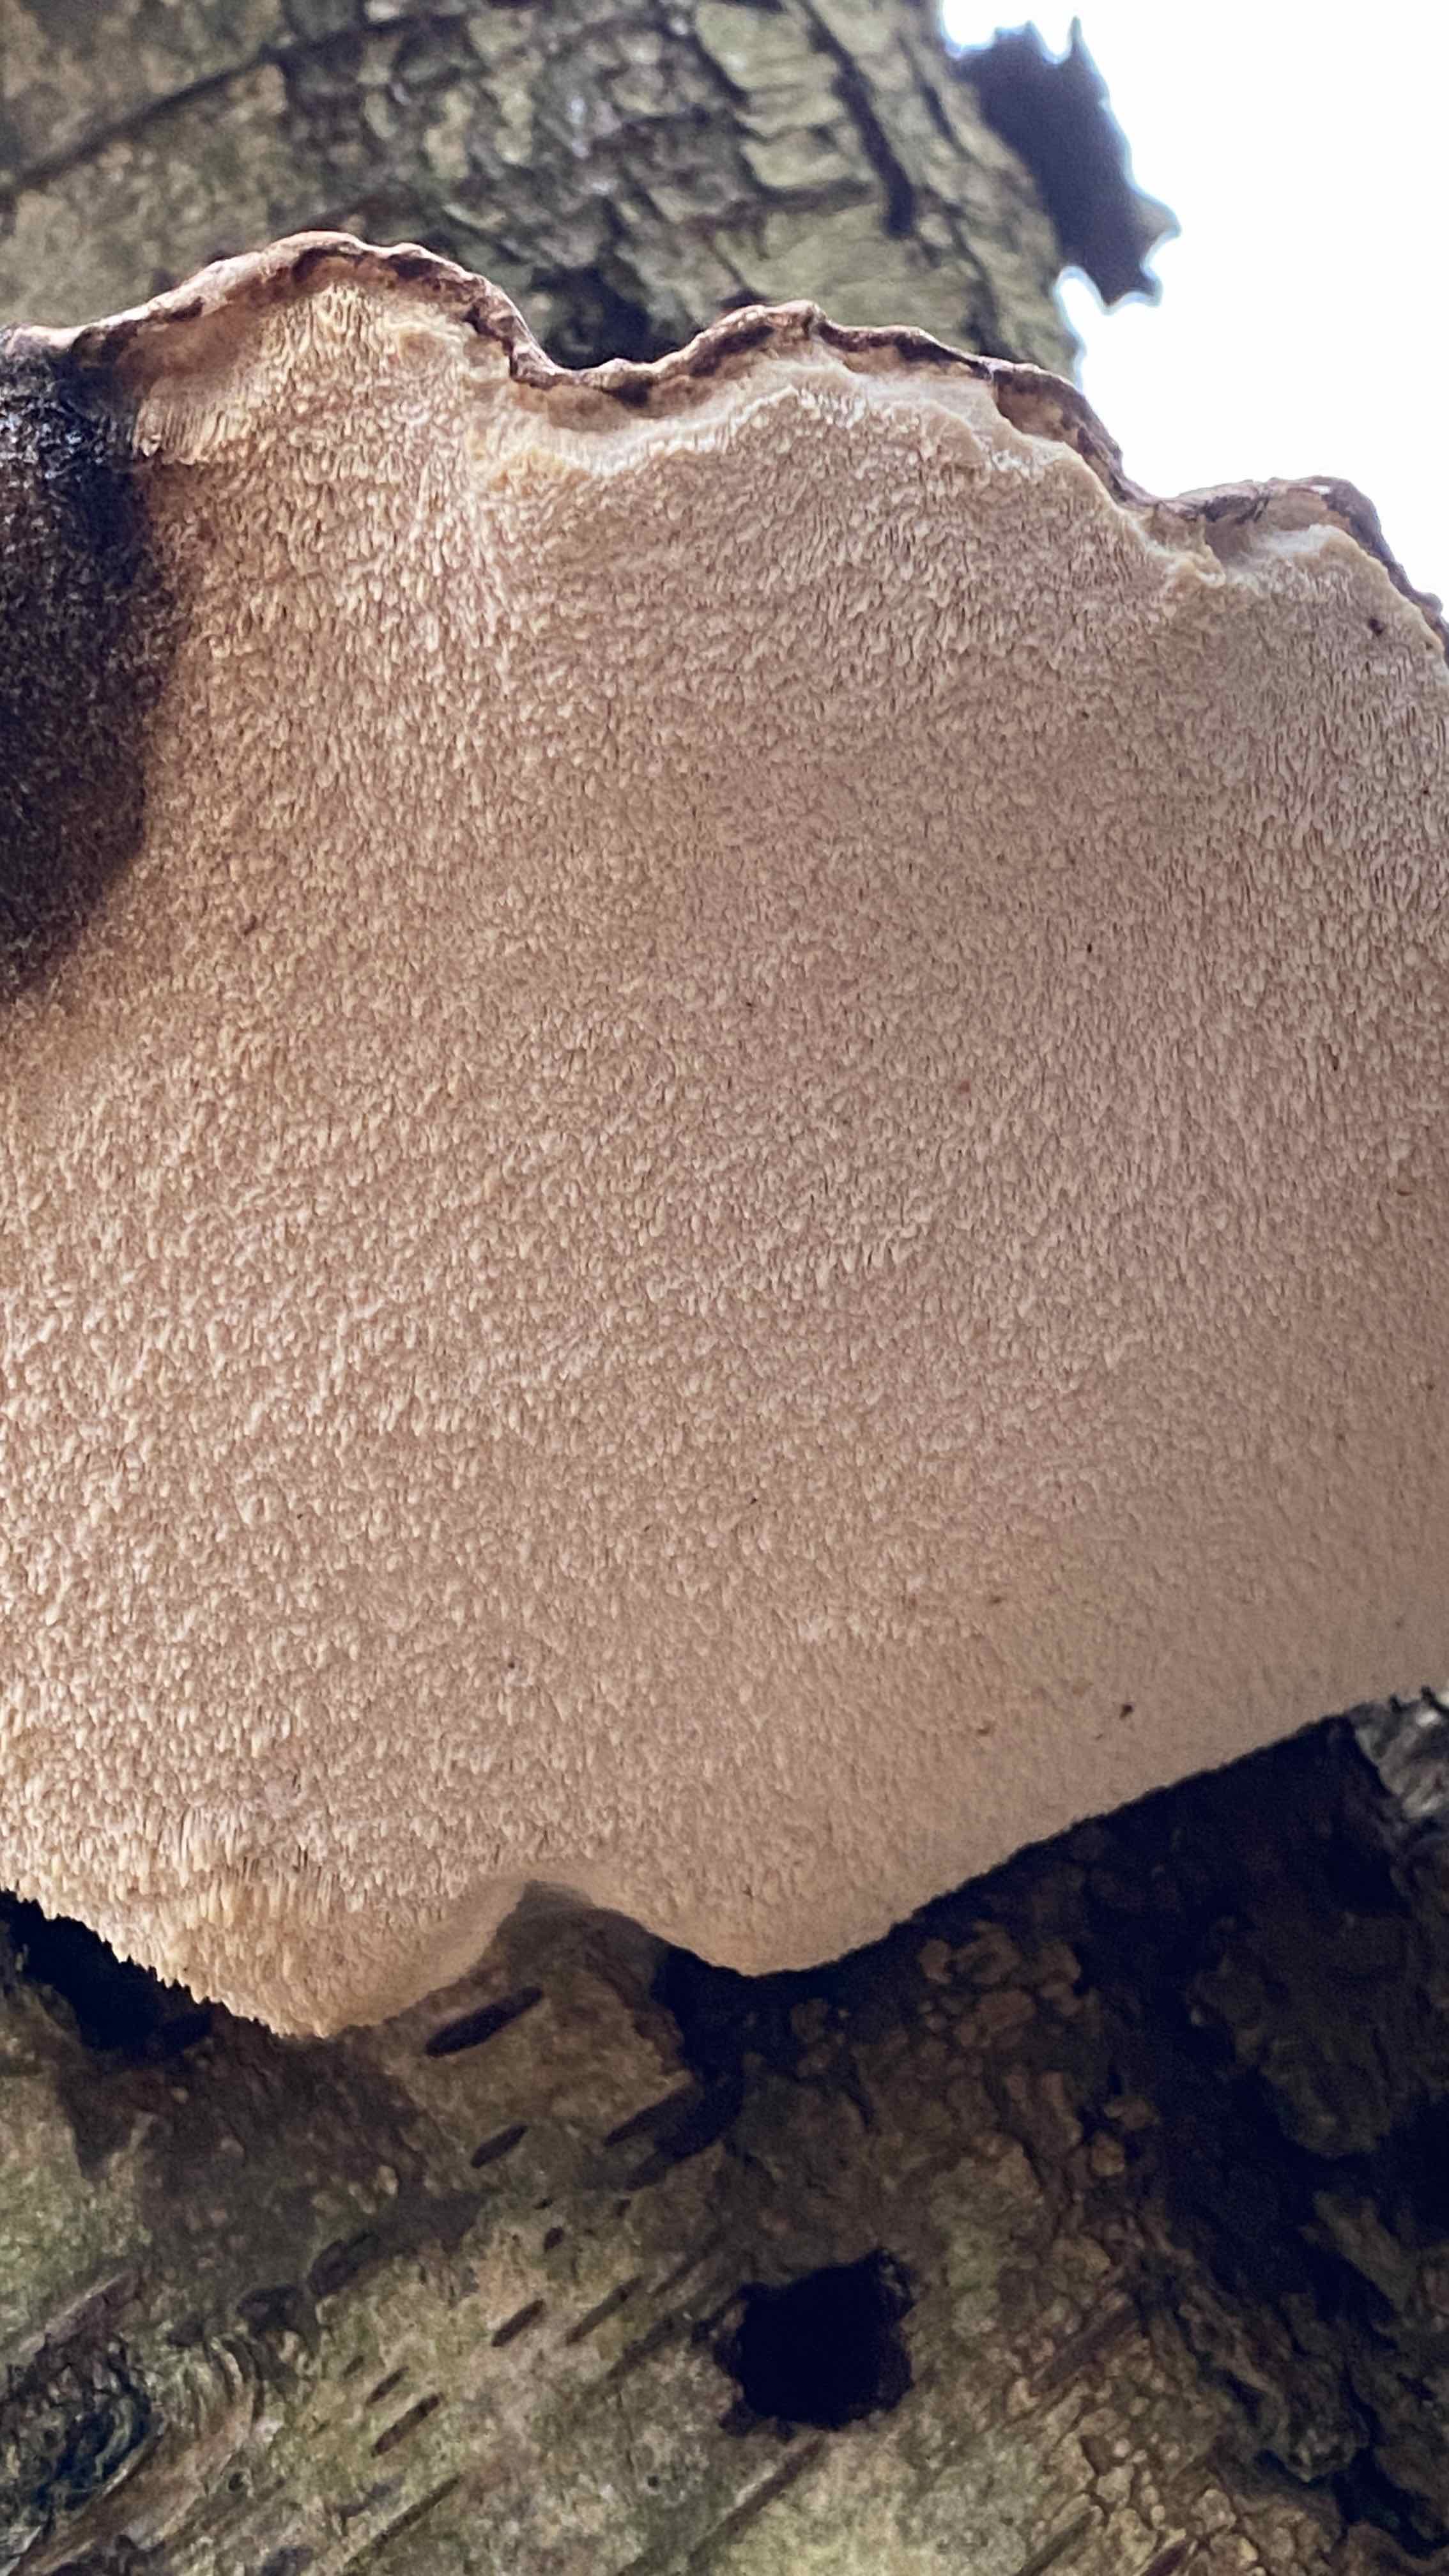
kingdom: Fungi
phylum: Basidiomycota
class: Agaricomycetes
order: Polyporales
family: Fomitopsidaceae
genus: Fomitopsis
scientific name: Fomitopsis betulina
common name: birkeporesvamp
